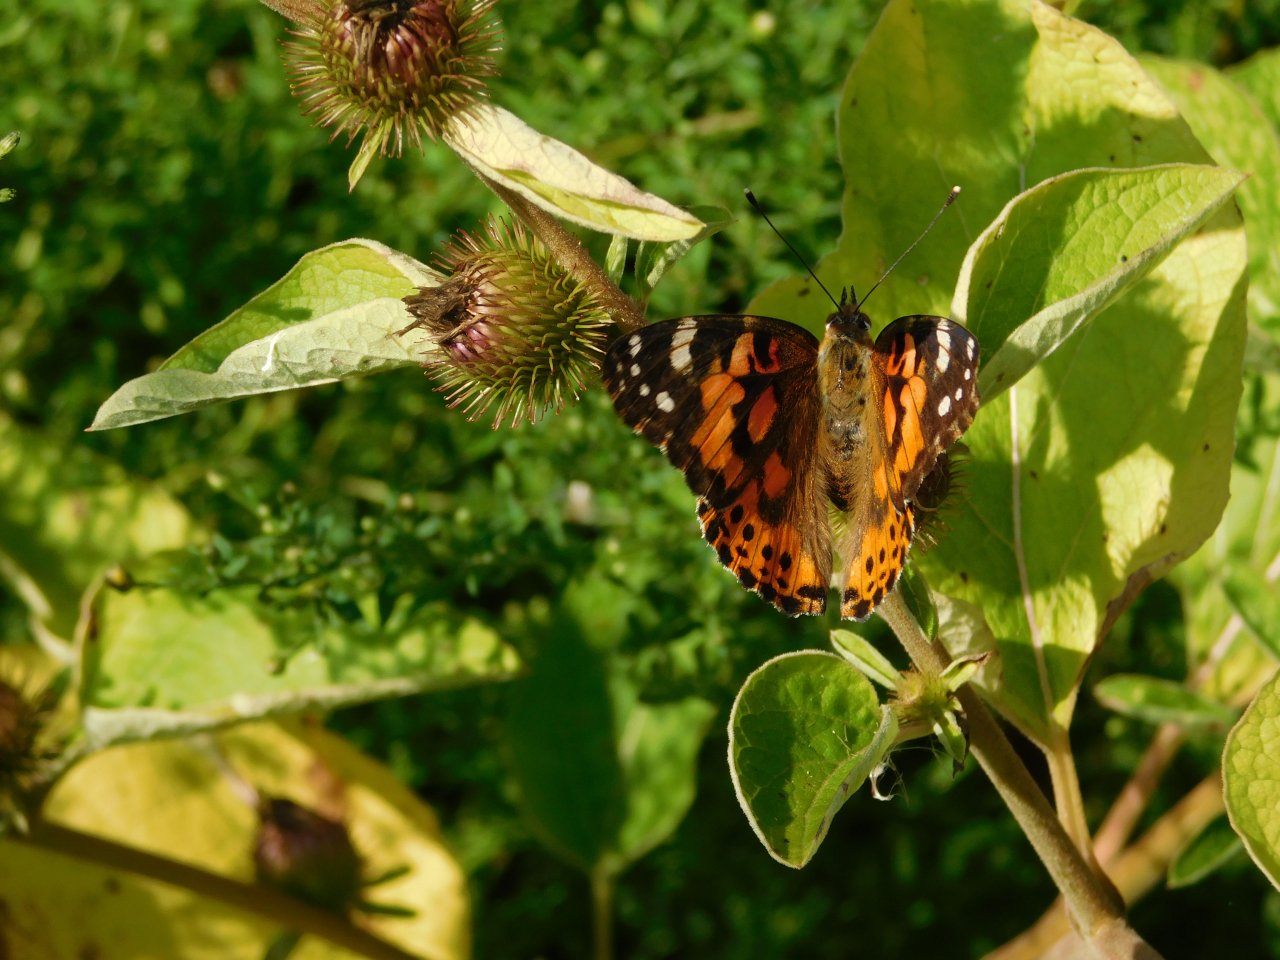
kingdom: Animalia
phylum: Arthropoda
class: Insecta
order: Lepidoptera
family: Nymphalidae
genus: Vanessa
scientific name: Vanessa cardui
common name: Painted Lady
